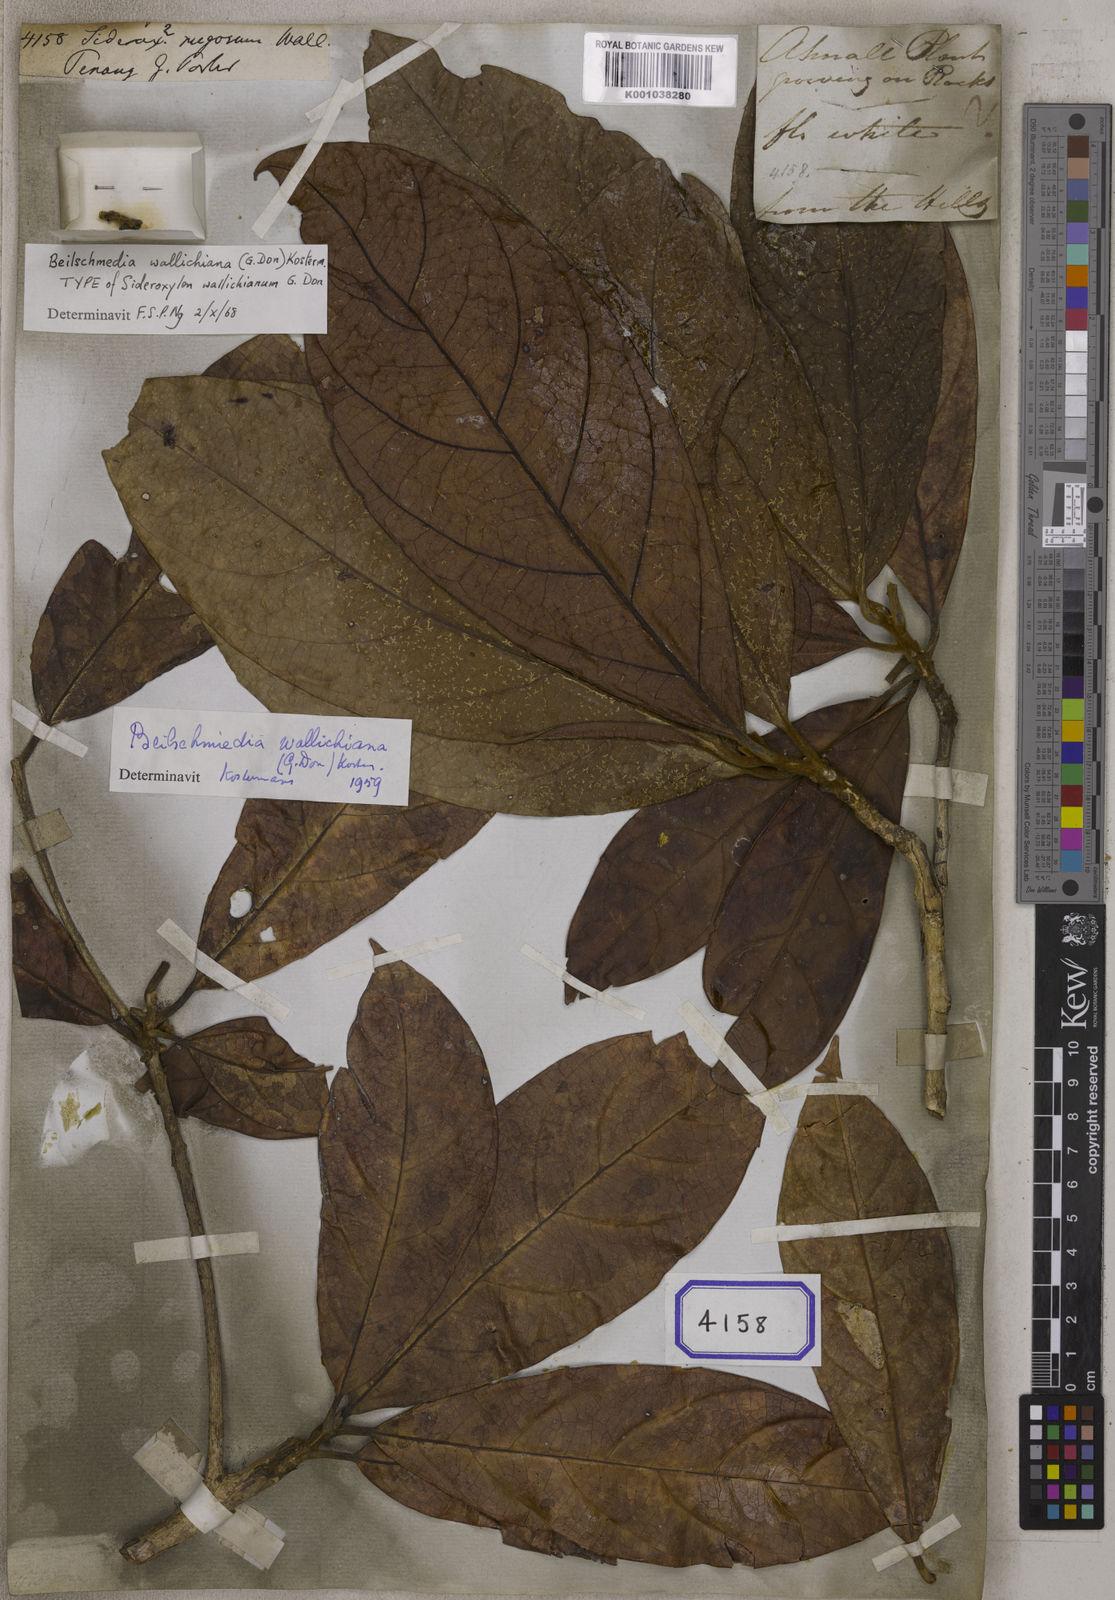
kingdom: Plantae
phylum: Tracheophyta
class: Magnoliopsida
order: Ericales
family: Sapotaceae
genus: Sideroxylon
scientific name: Sideroxylon
